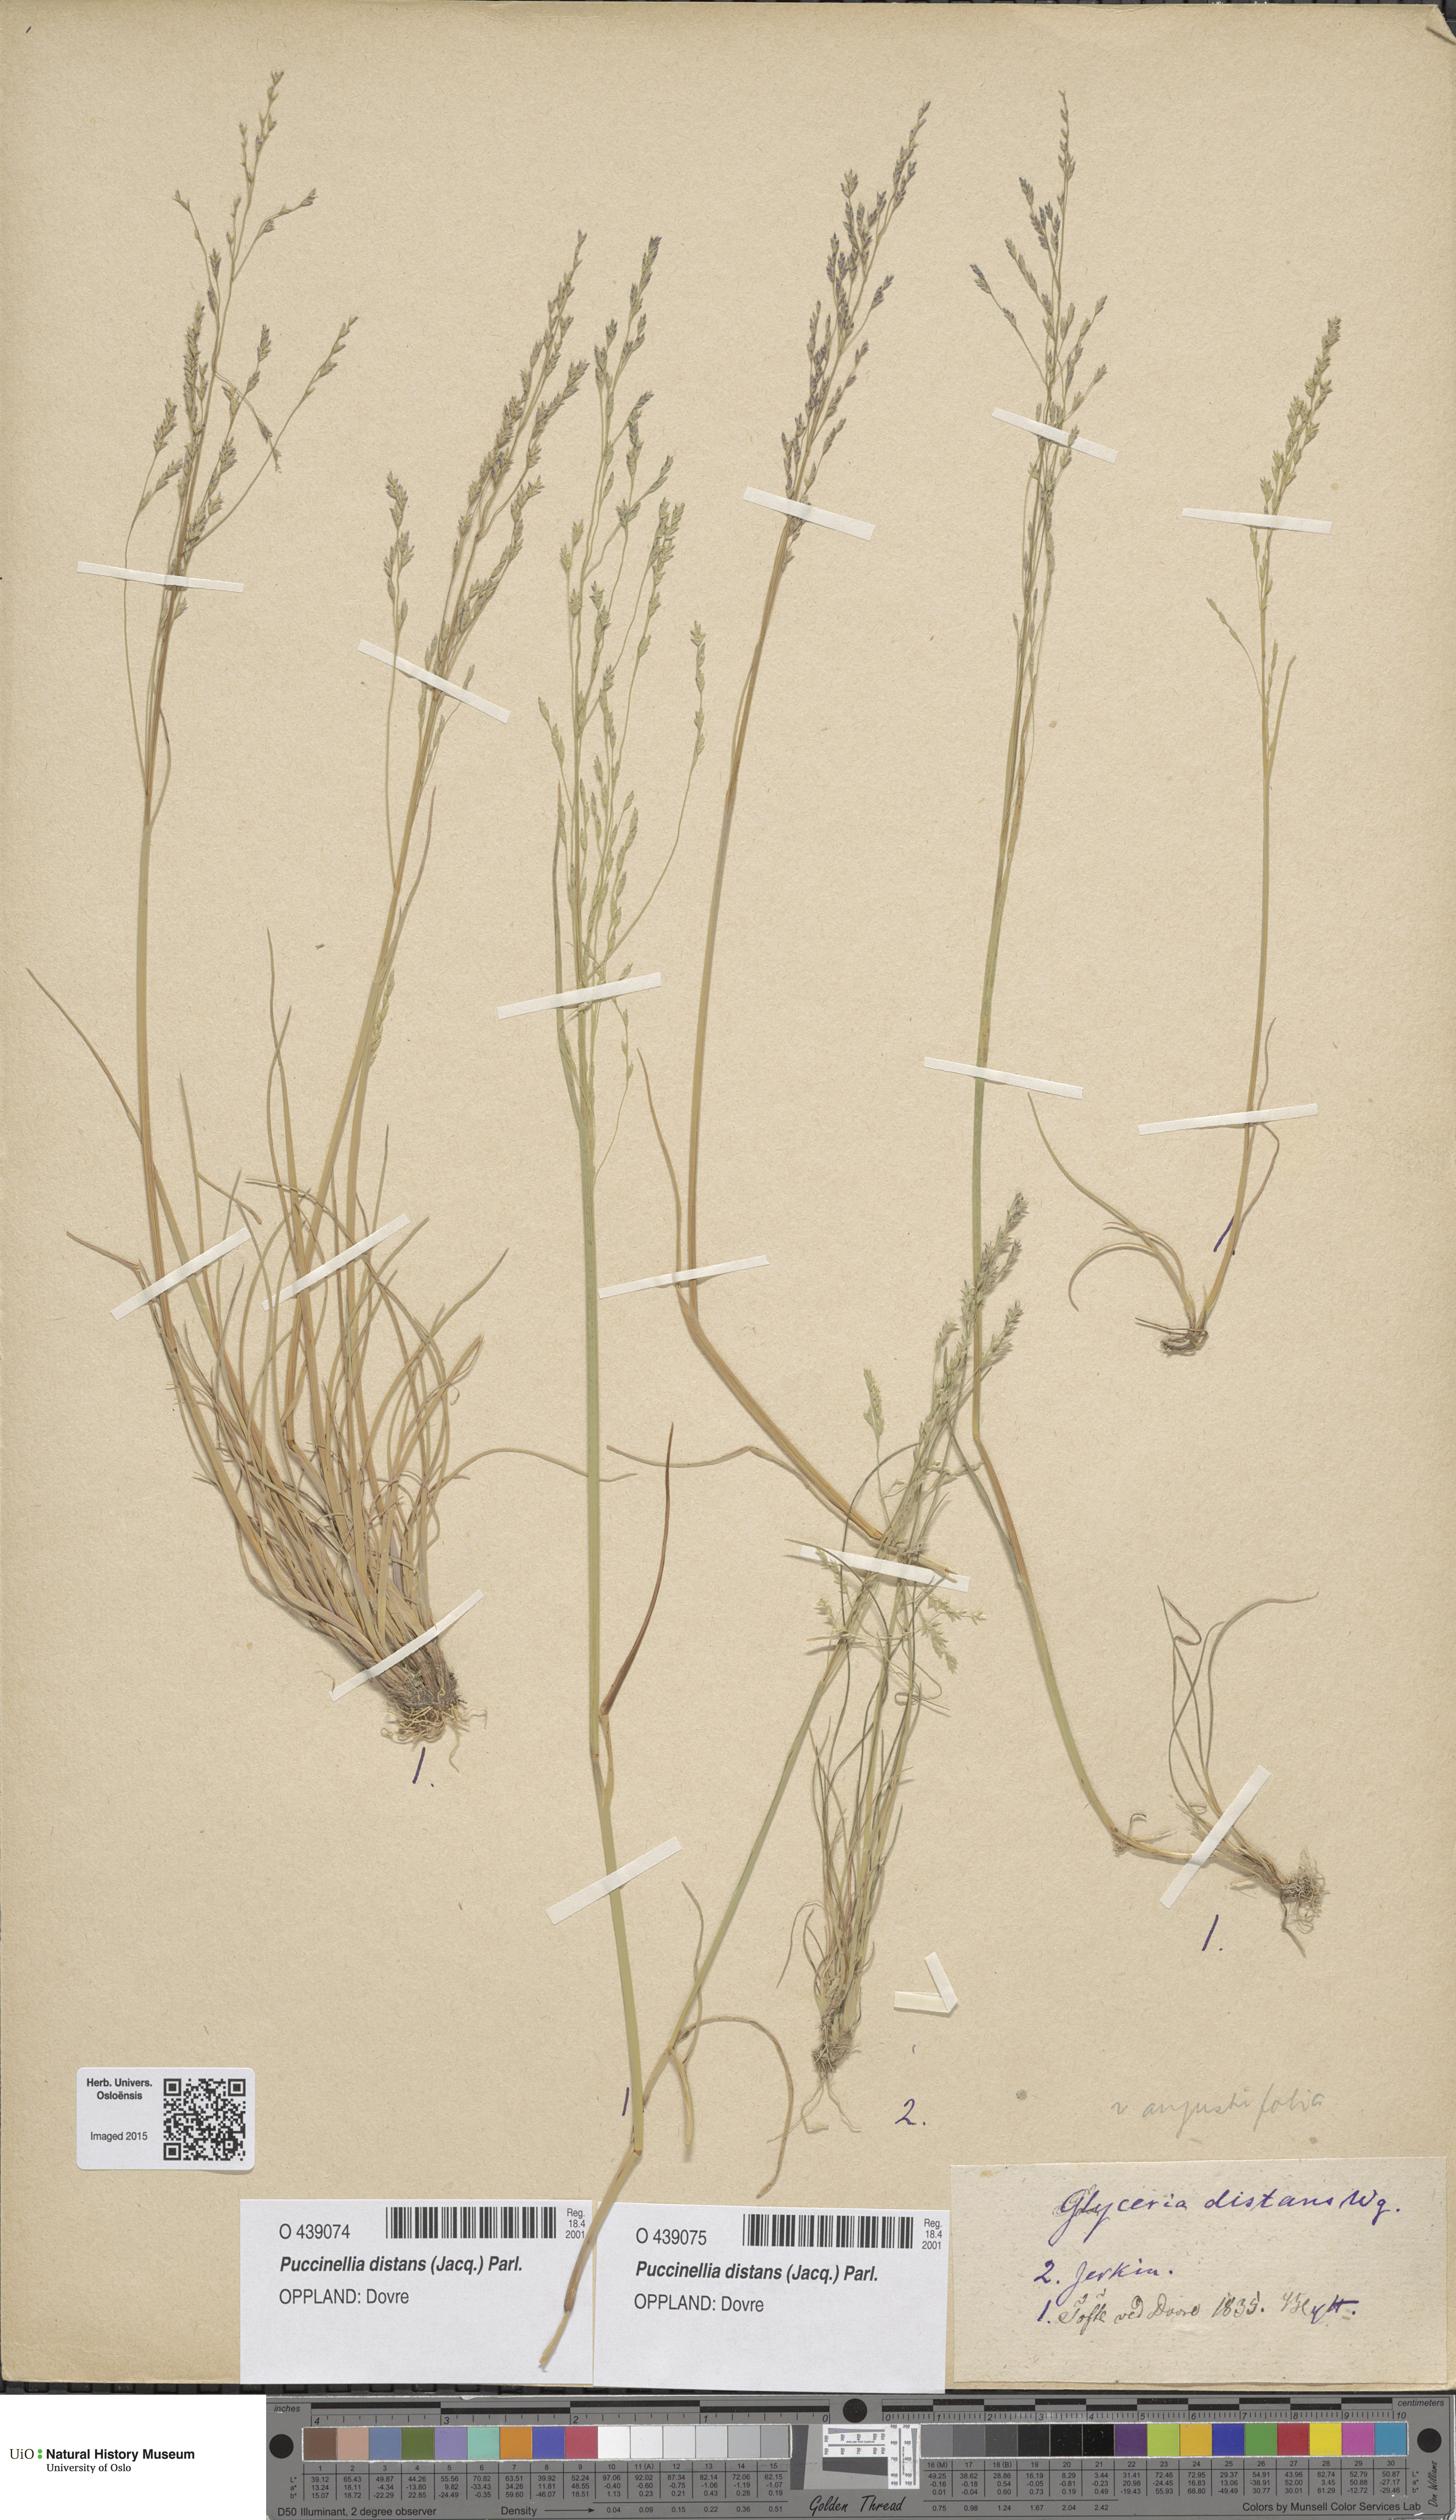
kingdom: Plantae
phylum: Tracheophyta
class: Liliopsida
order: Poales
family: Poaceae
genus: Puccinellia
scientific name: Puccinellia distans
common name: Weeping alkaligrass
